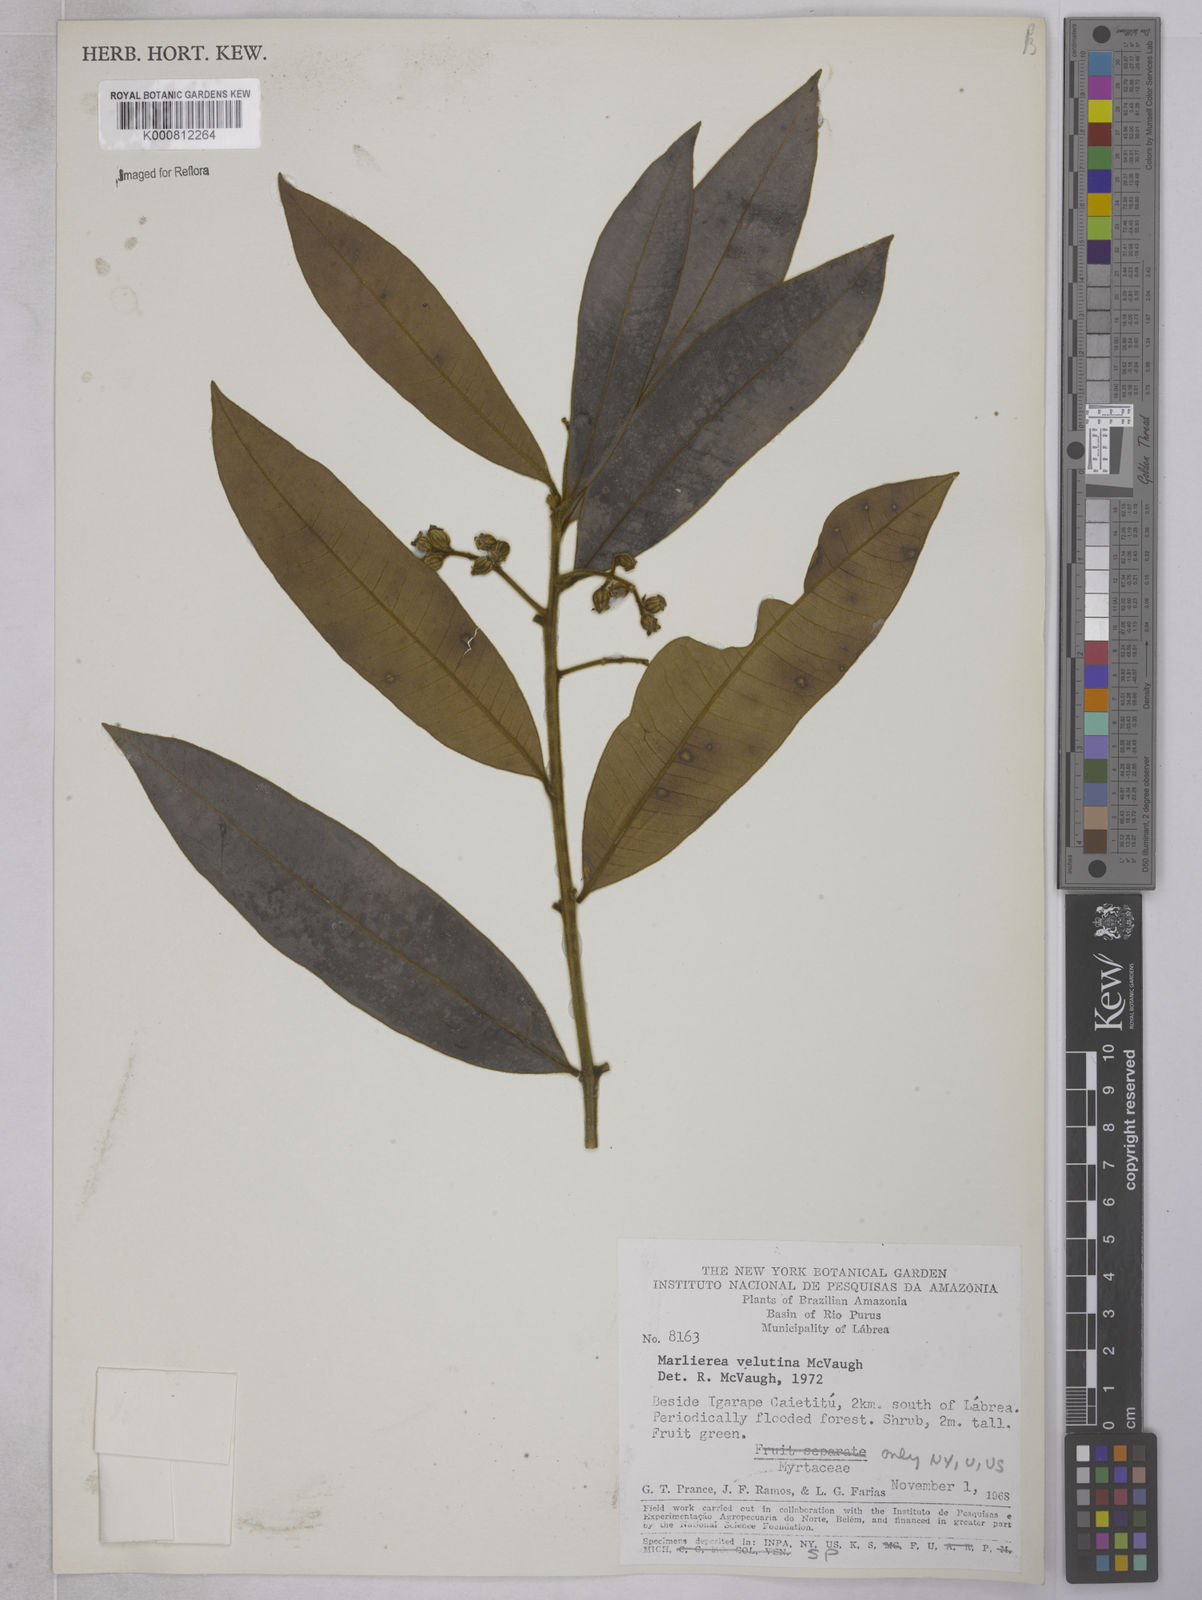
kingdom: Plantae
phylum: Tracheophyta
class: Magnoliopsida
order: Myrtales
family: Myrtaceae
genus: Myrcia
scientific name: Myrcia neovelutina
